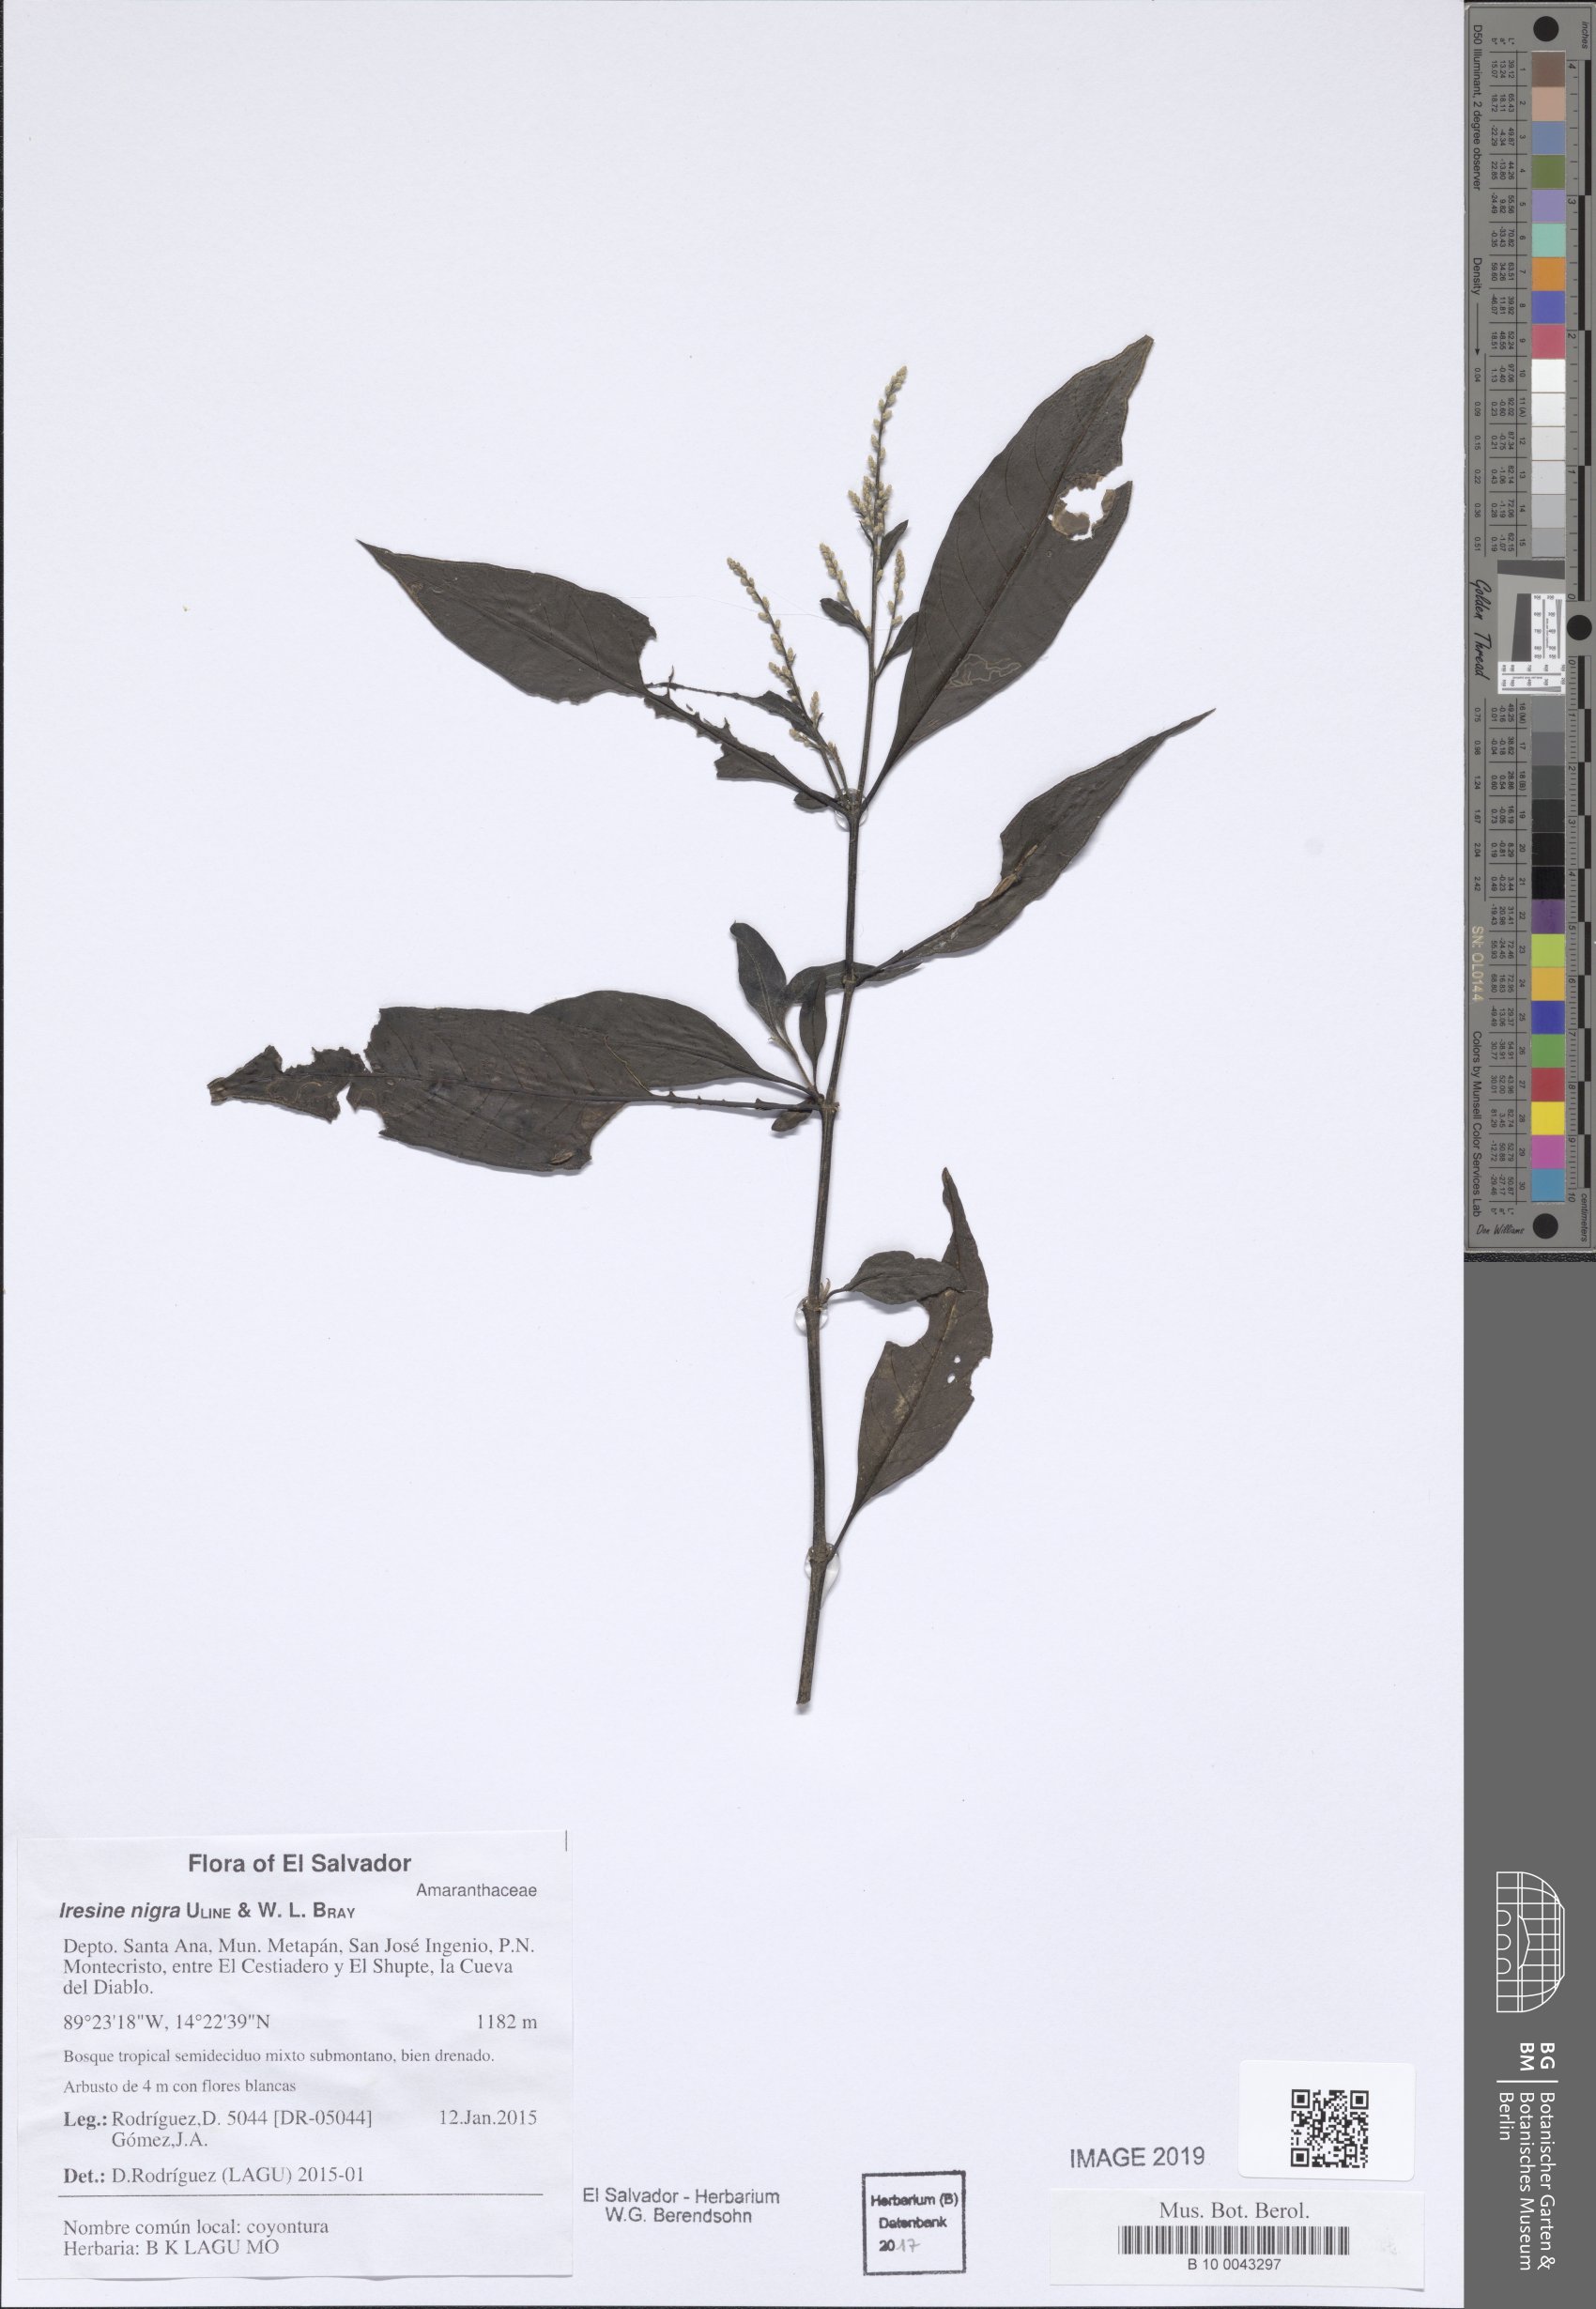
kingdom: Plantae
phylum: Tracheophyta
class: Magnoliopsida
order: Caryophyllales
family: Amaranthaceae
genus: Iresine
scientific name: Iresine nigra
